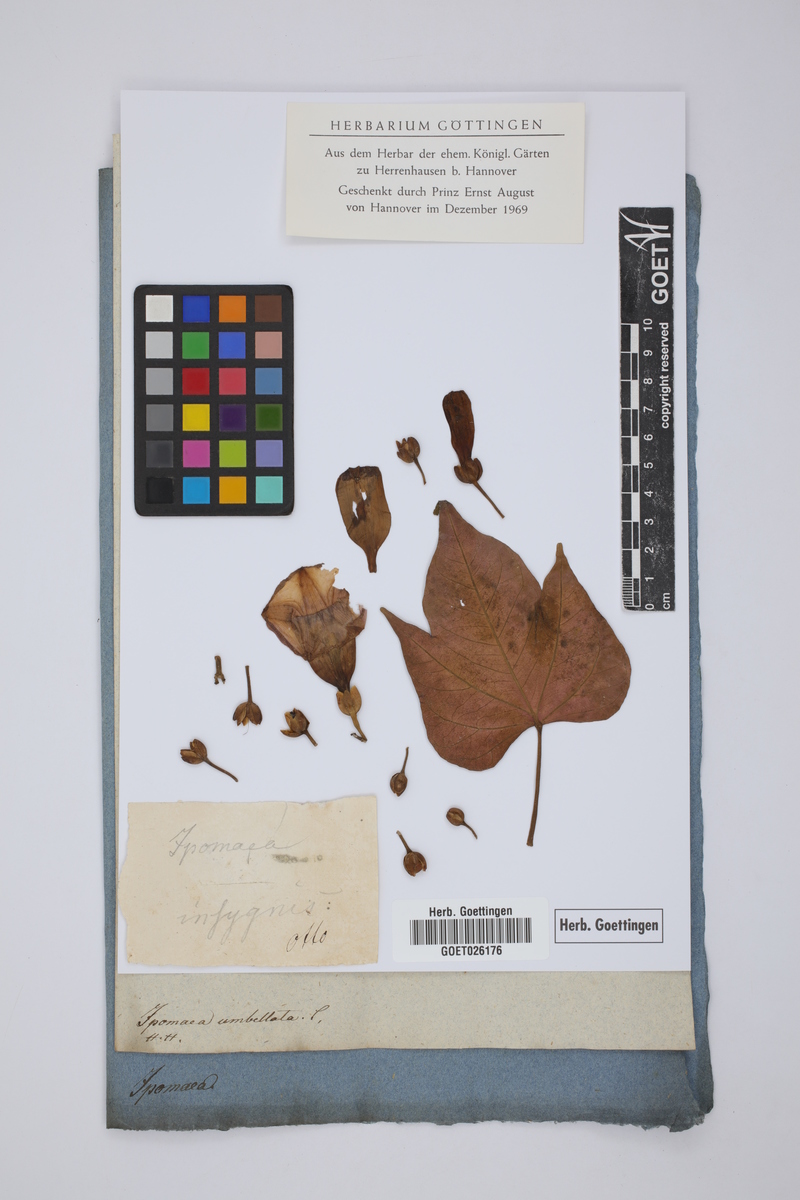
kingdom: Plantae
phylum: Tracheophyta
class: Magnoliopsida
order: Solanales
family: Convolvulaceae
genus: Ipomoea
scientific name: Ipomoea mauritiana
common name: Mauritanian convolvulus
